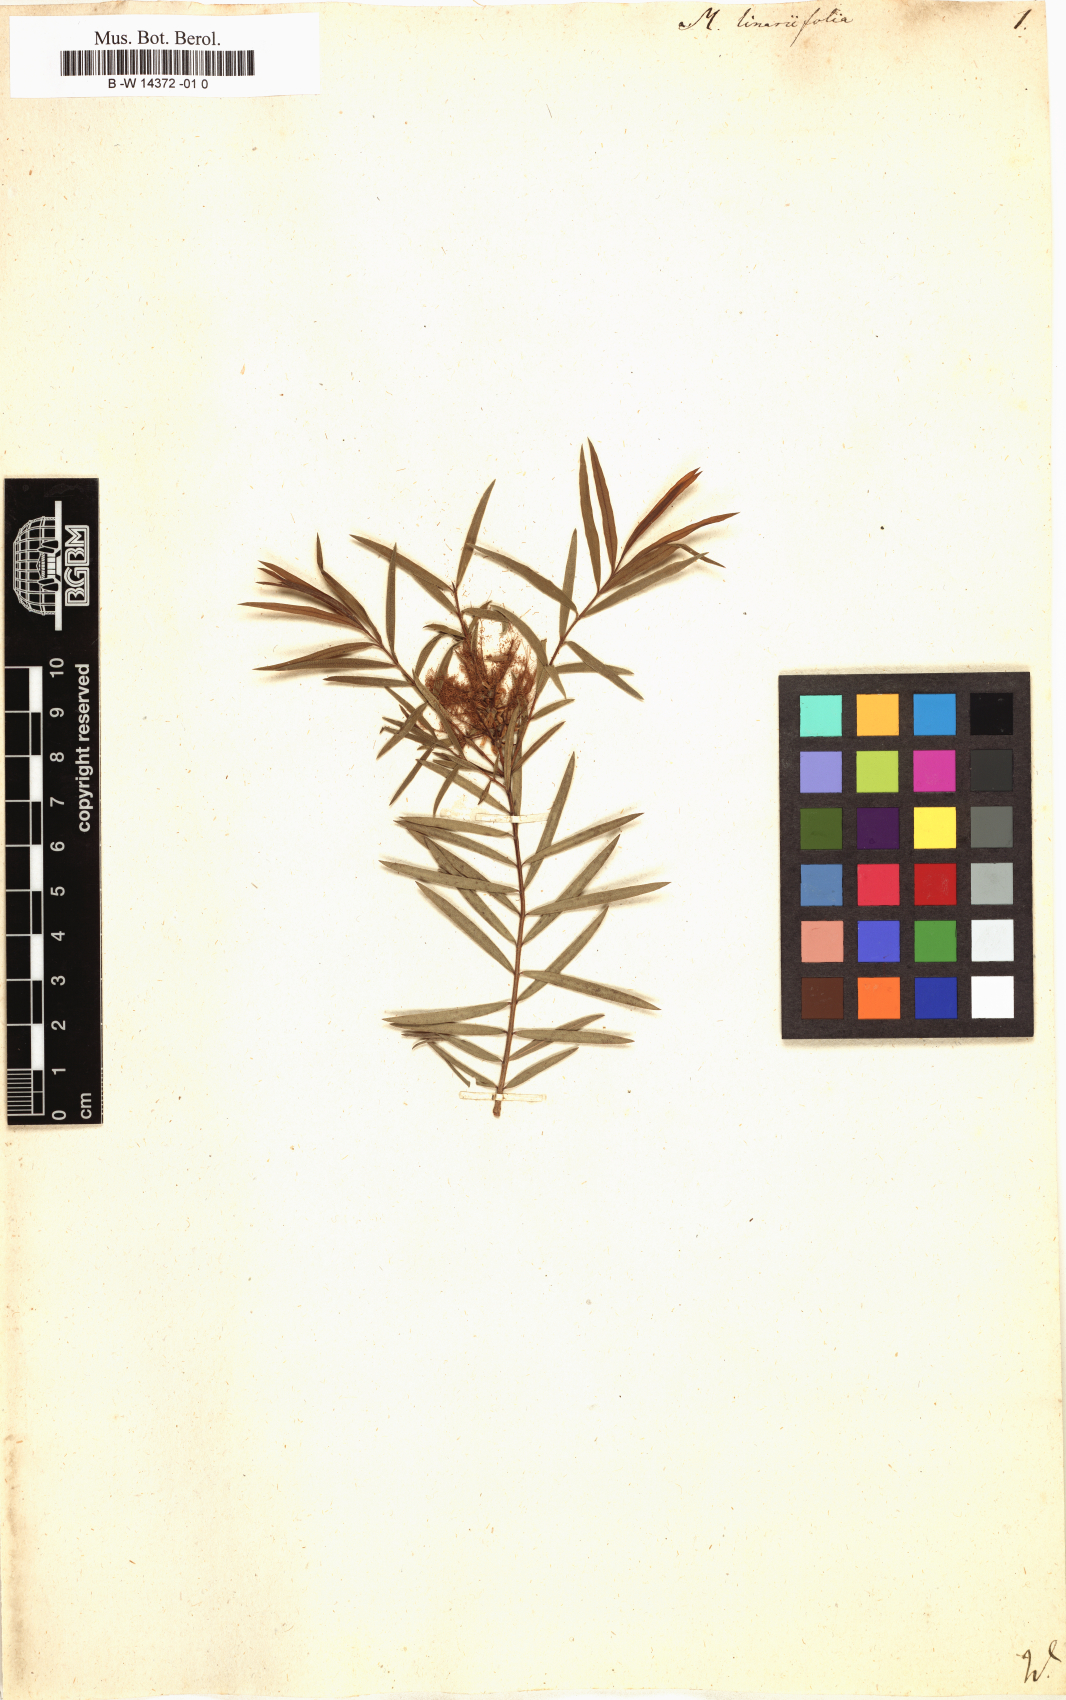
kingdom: Plantae
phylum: Tracheophyta
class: Magnoliopsida
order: Myrtales
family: Myrtaceae
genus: Melaleuca
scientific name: Melaleuca linariifolia
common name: Cajeput tree
